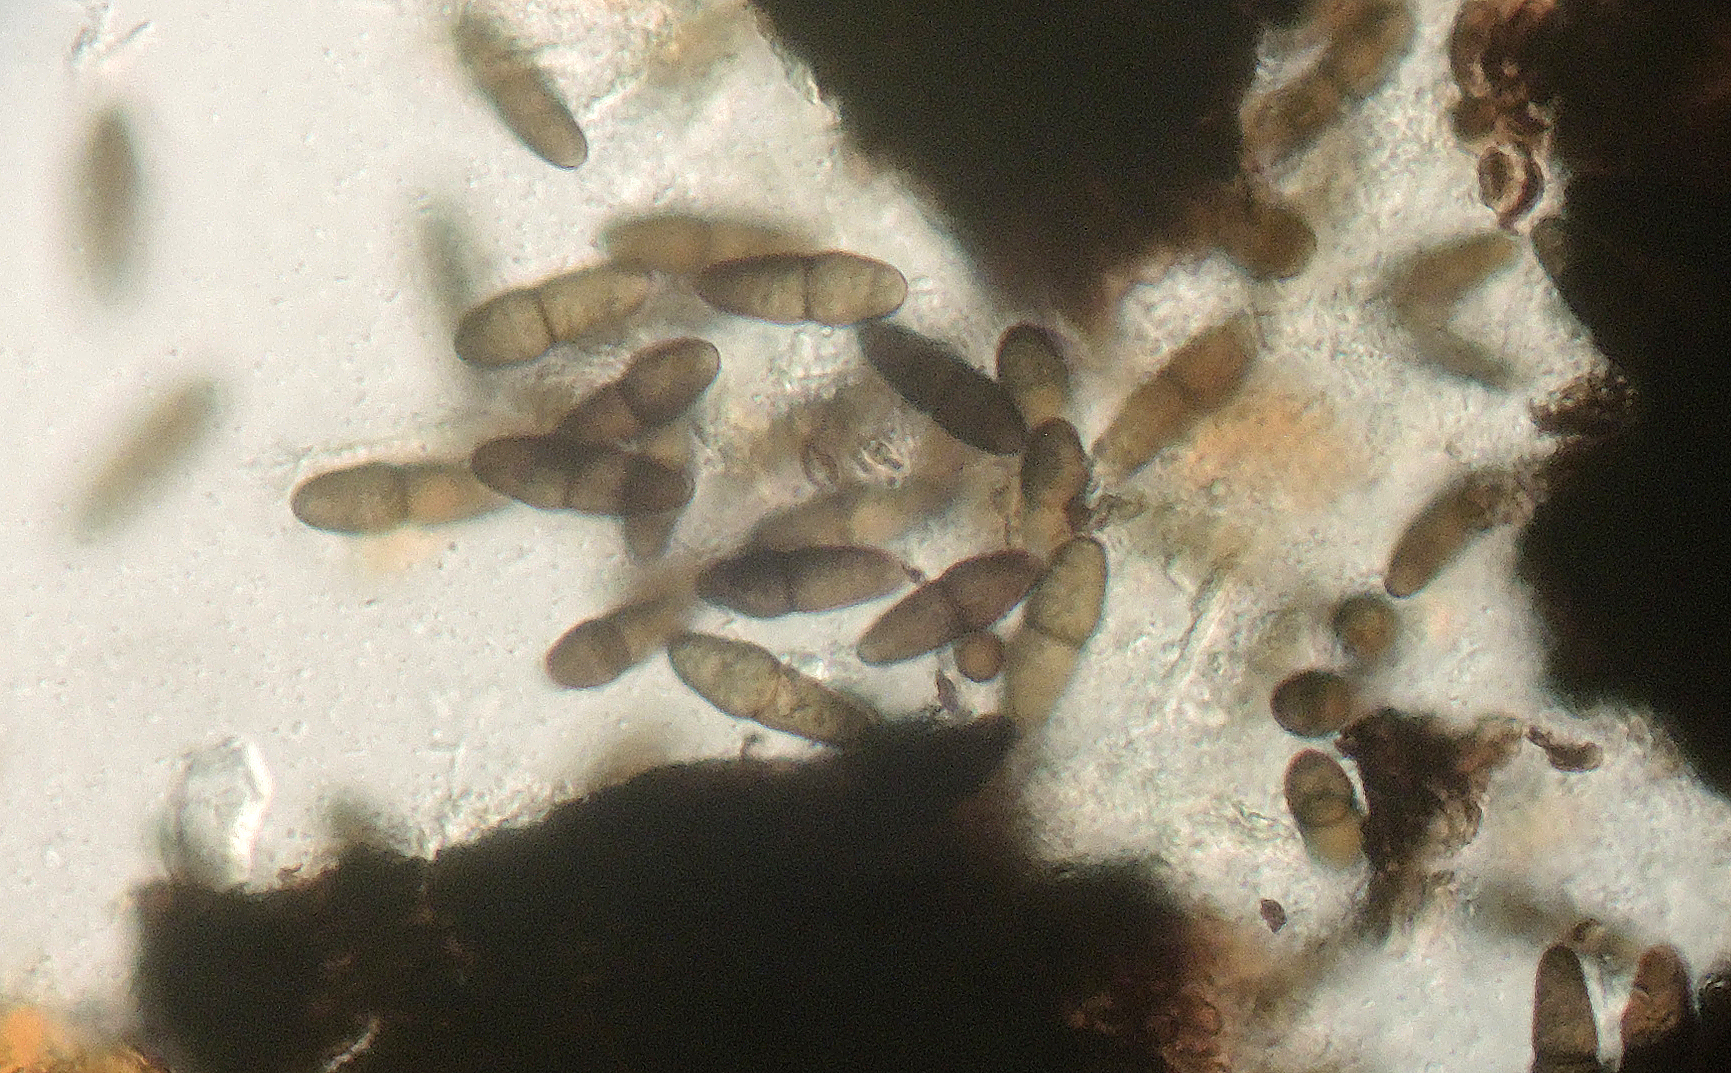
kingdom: Fungi
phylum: Ascomycota
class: Dothideomycetes
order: Microthyriales
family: Microthyriaceae
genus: Seynesiella
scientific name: Seynesiella juniperi
